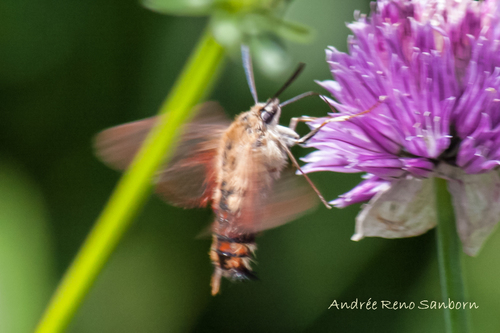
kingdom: Animalia
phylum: Arthropoda
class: Insecta
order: Lepidoptera
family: Sphingidae
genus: Hemaris
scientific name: Hemaris thysbe
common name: Common clear-wing
